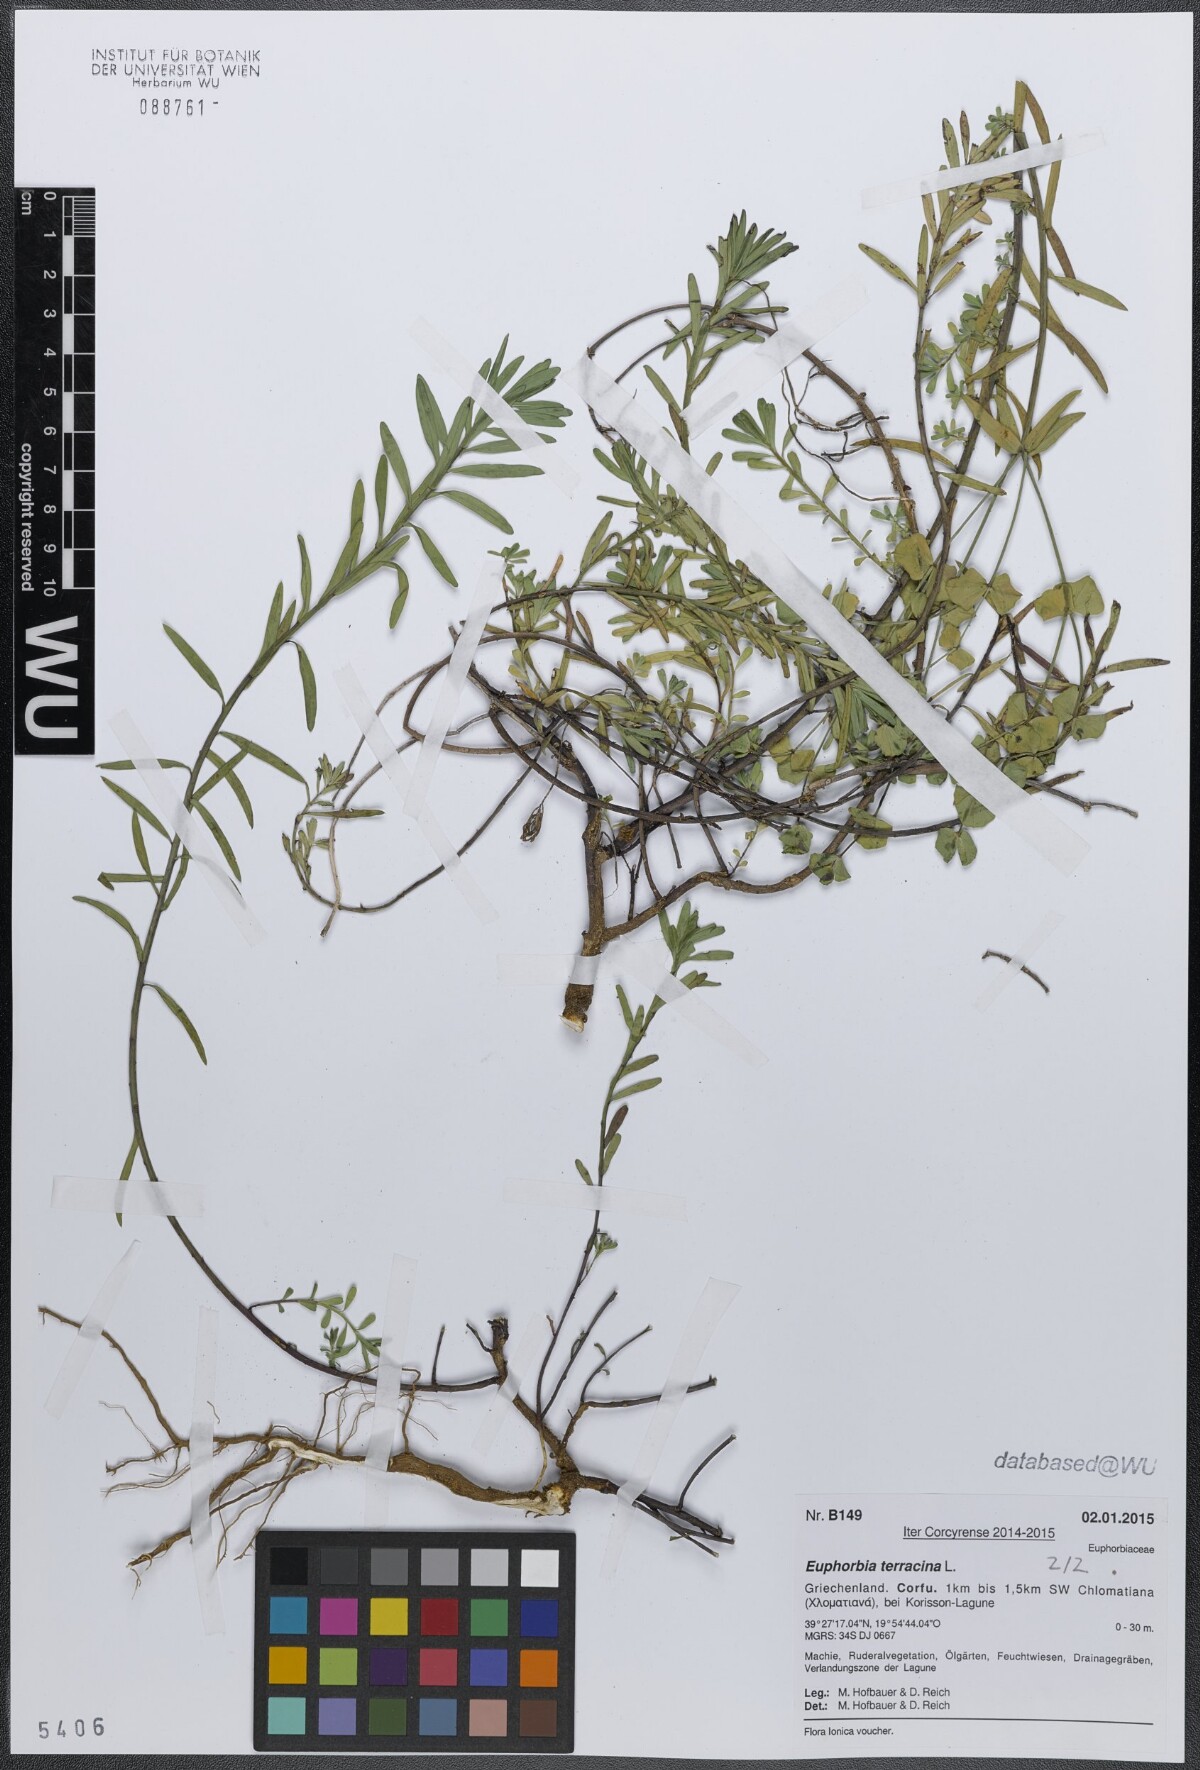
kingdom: Plantae
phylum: Tracheophyta
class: Magnoliopsida
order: Malpighiales
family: Euphorbiaceae
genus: Euphorbia
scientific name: Euphorbia terracina
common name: Geraldton carnation weed
